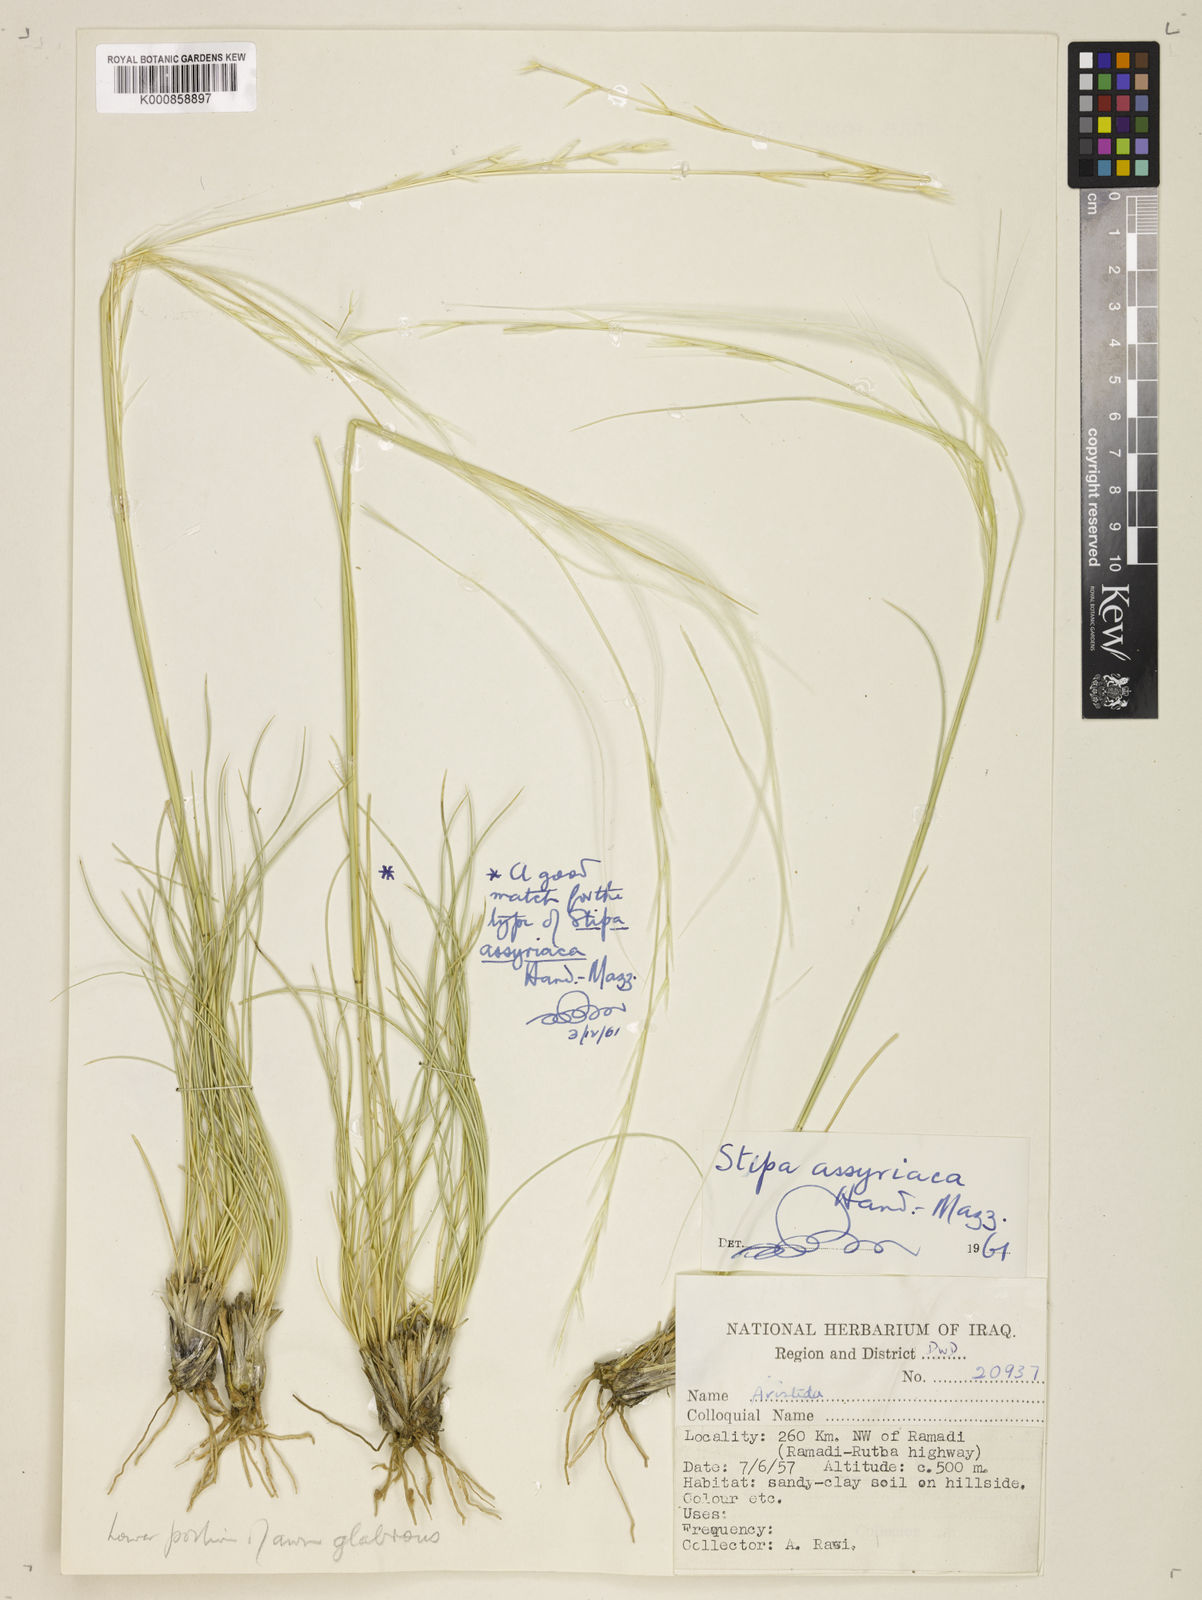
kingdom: Plantae
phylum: Tracheophyta
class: Liliopsida
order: Poales
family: Poaceae
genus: Stipa
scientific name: Stipa hohenackeriana
